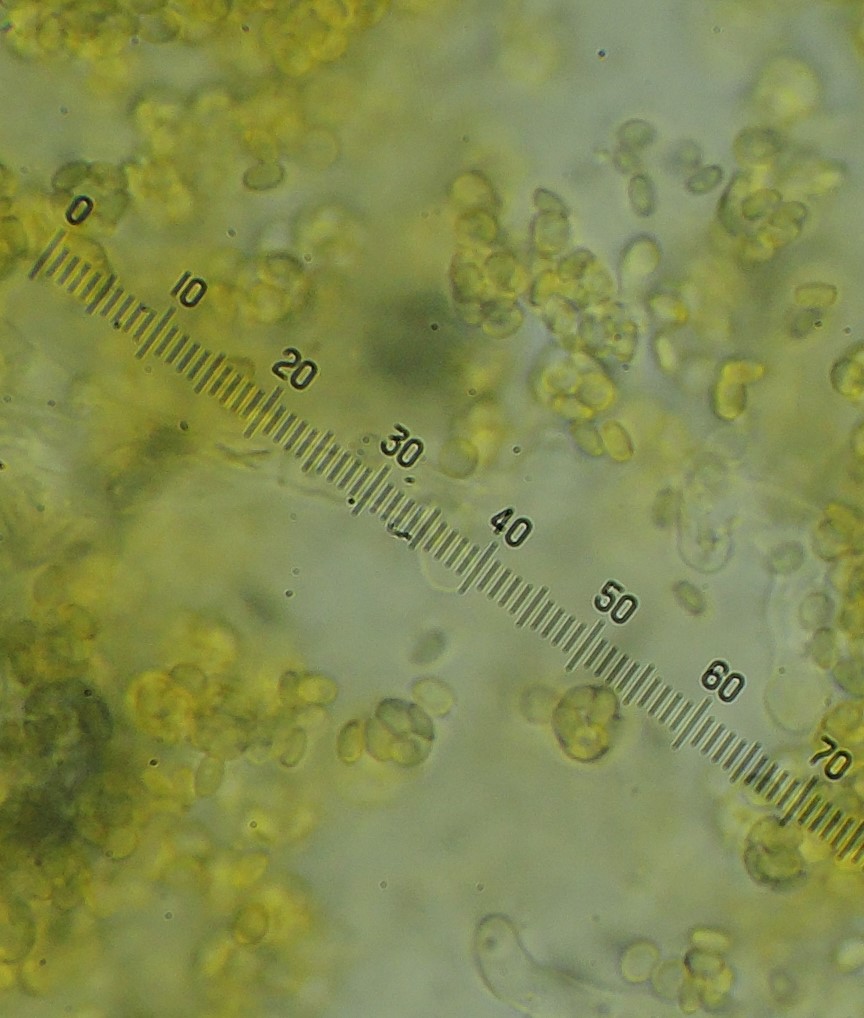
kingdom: Fungi
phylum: Ascomycota
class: Eurotiomycetes
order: Onygenales
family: Arthrodermataceae
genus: Arthroderma
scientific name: Arthroderma
